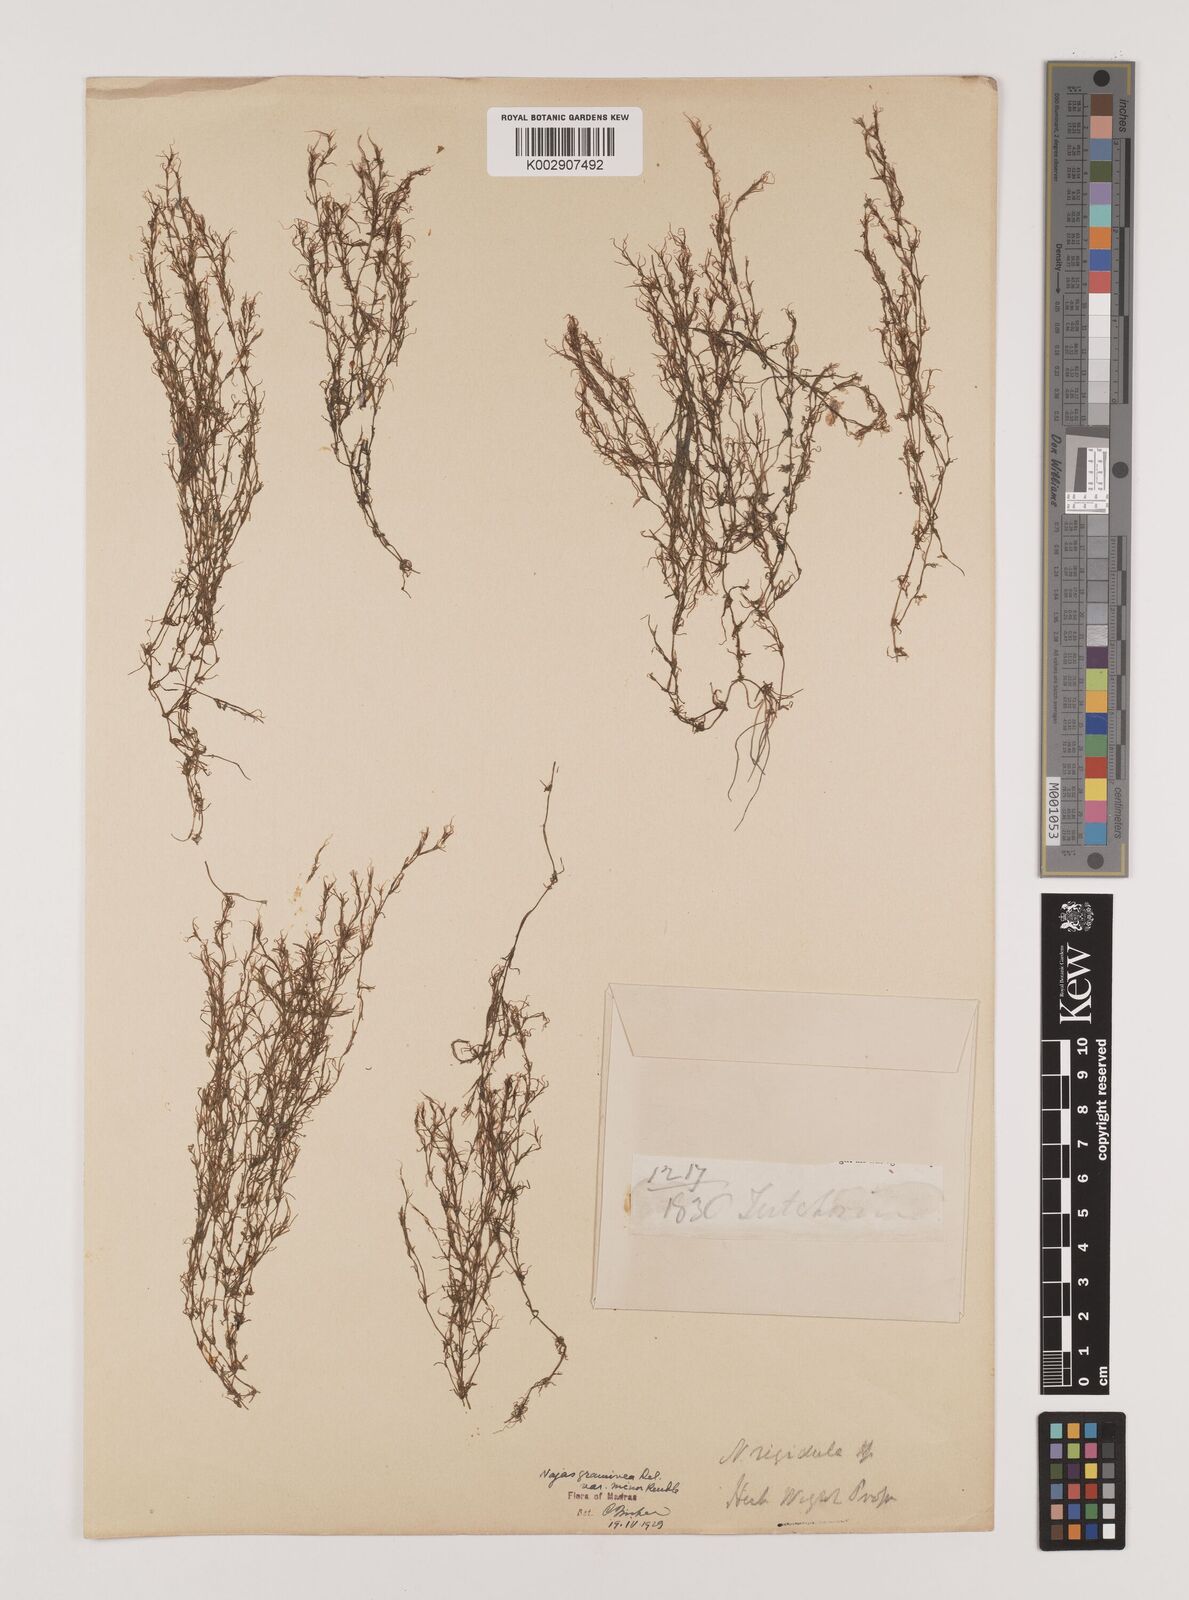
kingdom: Plantae
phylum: Tracheophyta
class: Liliopsida
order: Alismatales
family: Hydrocharitaceae
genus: Najas
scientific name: Najas graminea
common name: Ricefield waternymph
